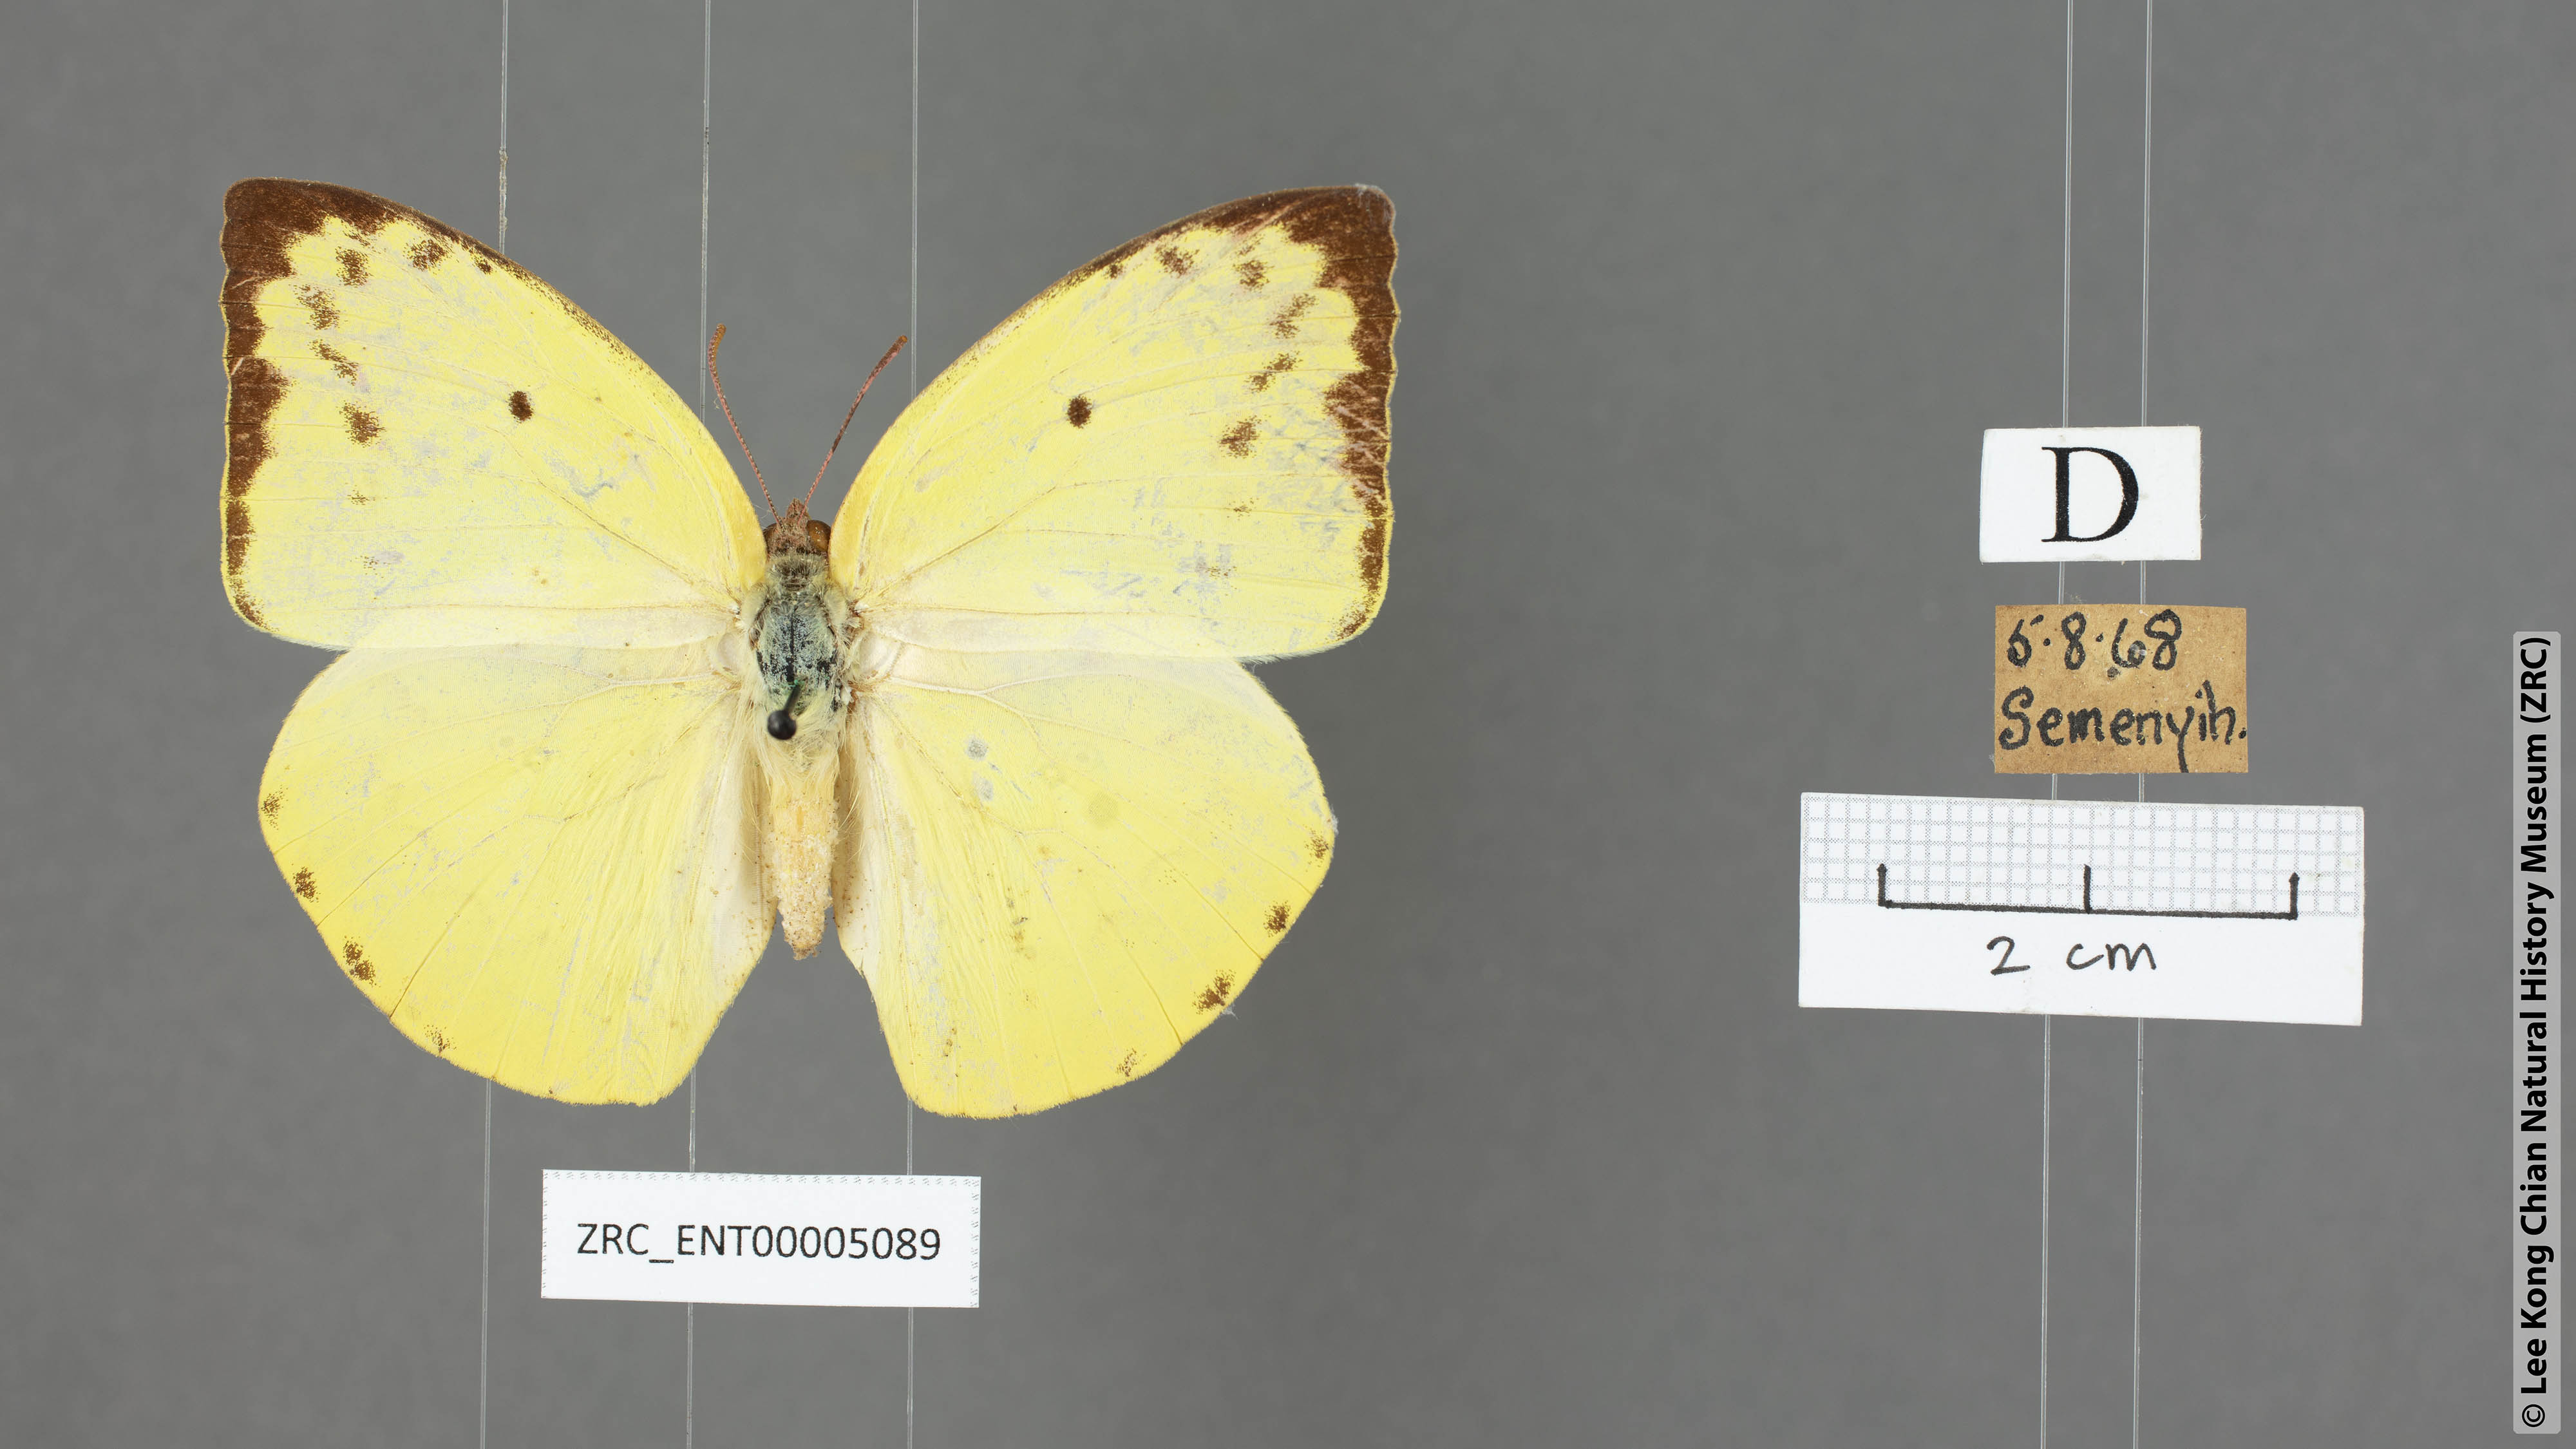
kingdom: Animalia
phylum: Arthropoda
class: Insecta
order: Lepidoptera
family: Pieridae
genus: Catopsilia
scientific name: Catopsilia pomona
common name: Common emigrant
